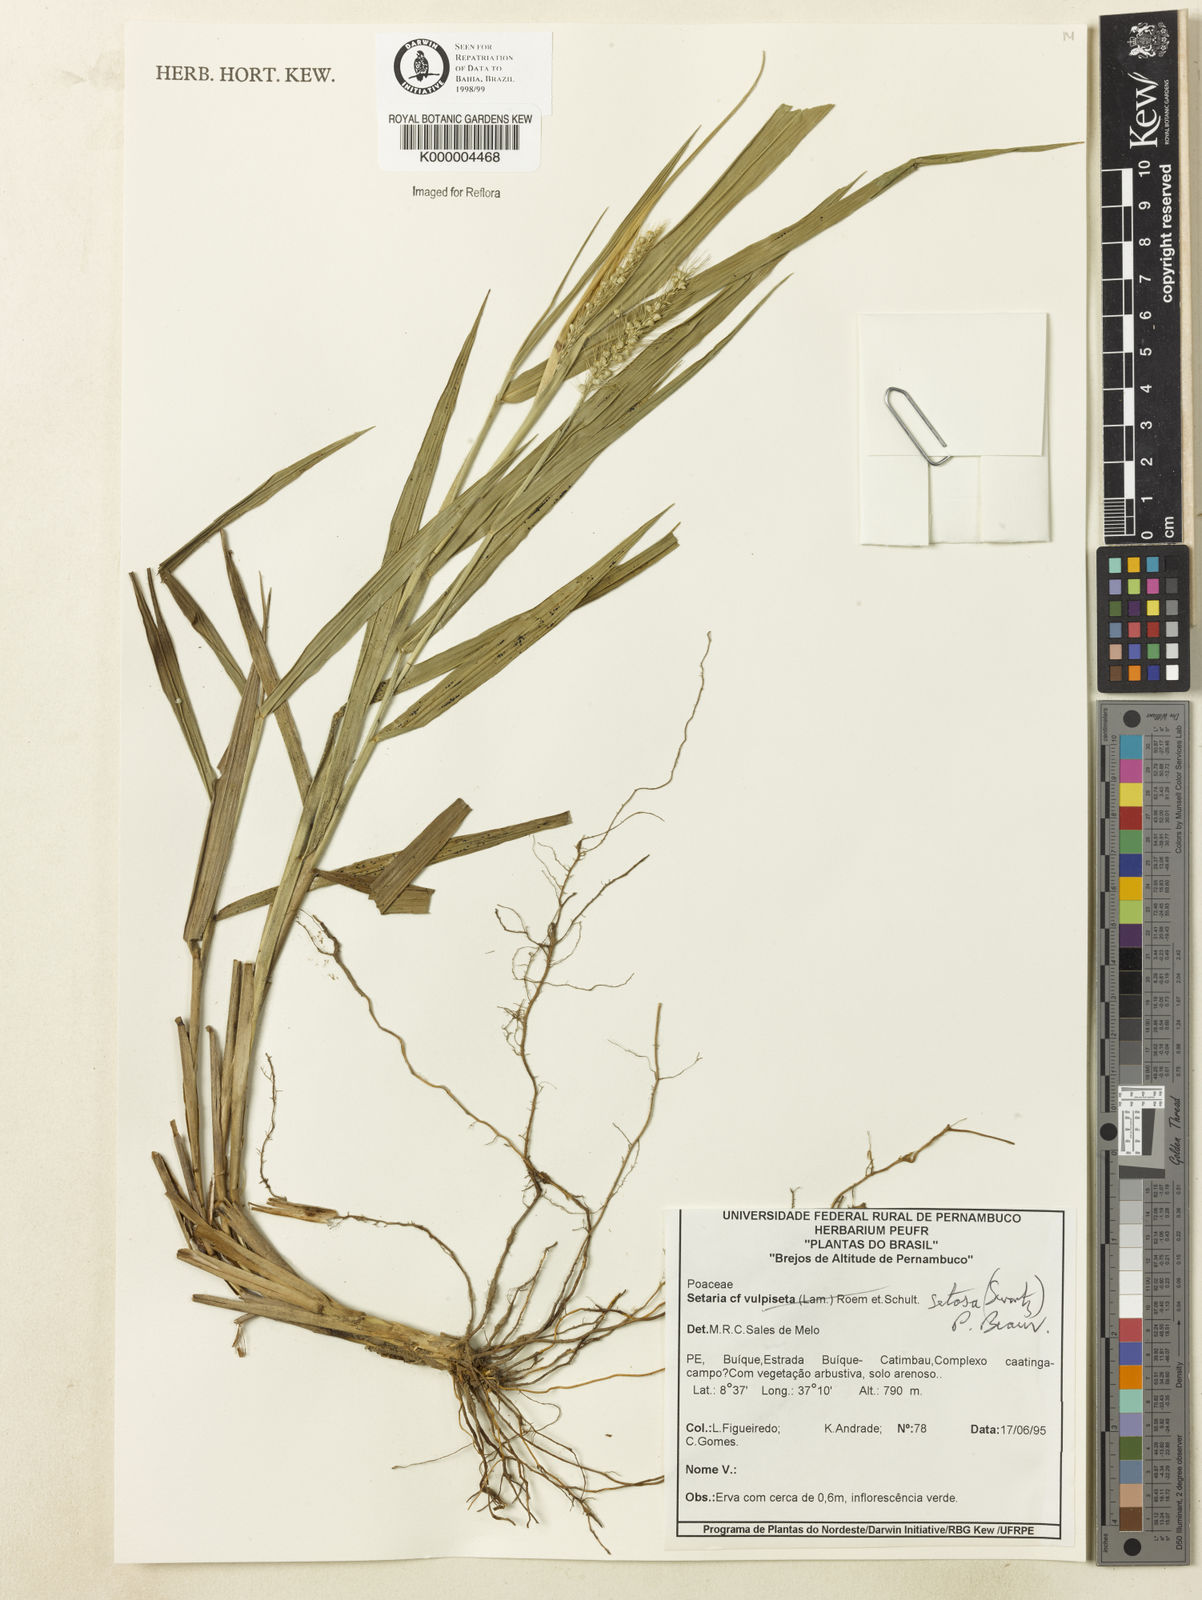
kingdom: Plantae
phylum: Tracheophyta
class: Liliopsida
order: Poales
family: Poaceae
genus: Setaria
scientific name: Setaria setosa
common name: West indies bristle grass
